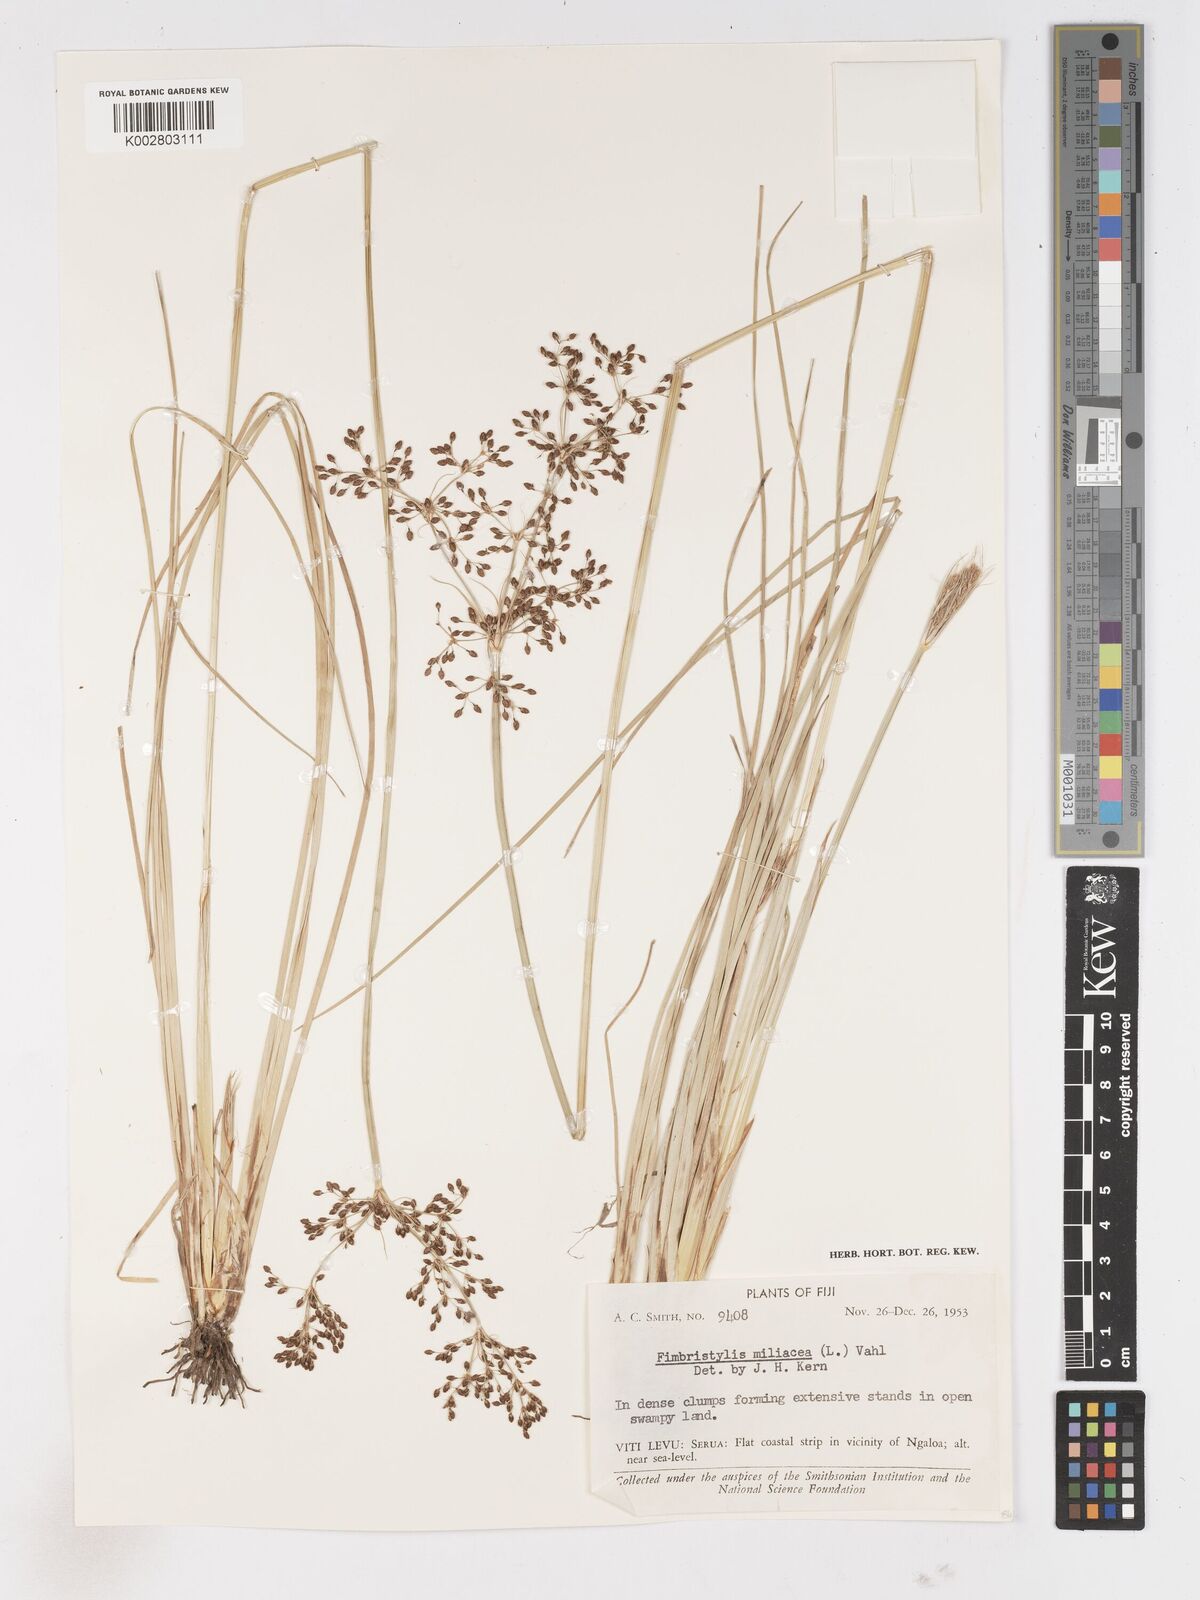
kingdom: Plantae
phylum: Tracheophyta
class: Liliopsida
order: Poales
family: Cyperaceae
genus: Fimbristylis
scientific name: Fimbristylis littoralis
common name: Fimbry
